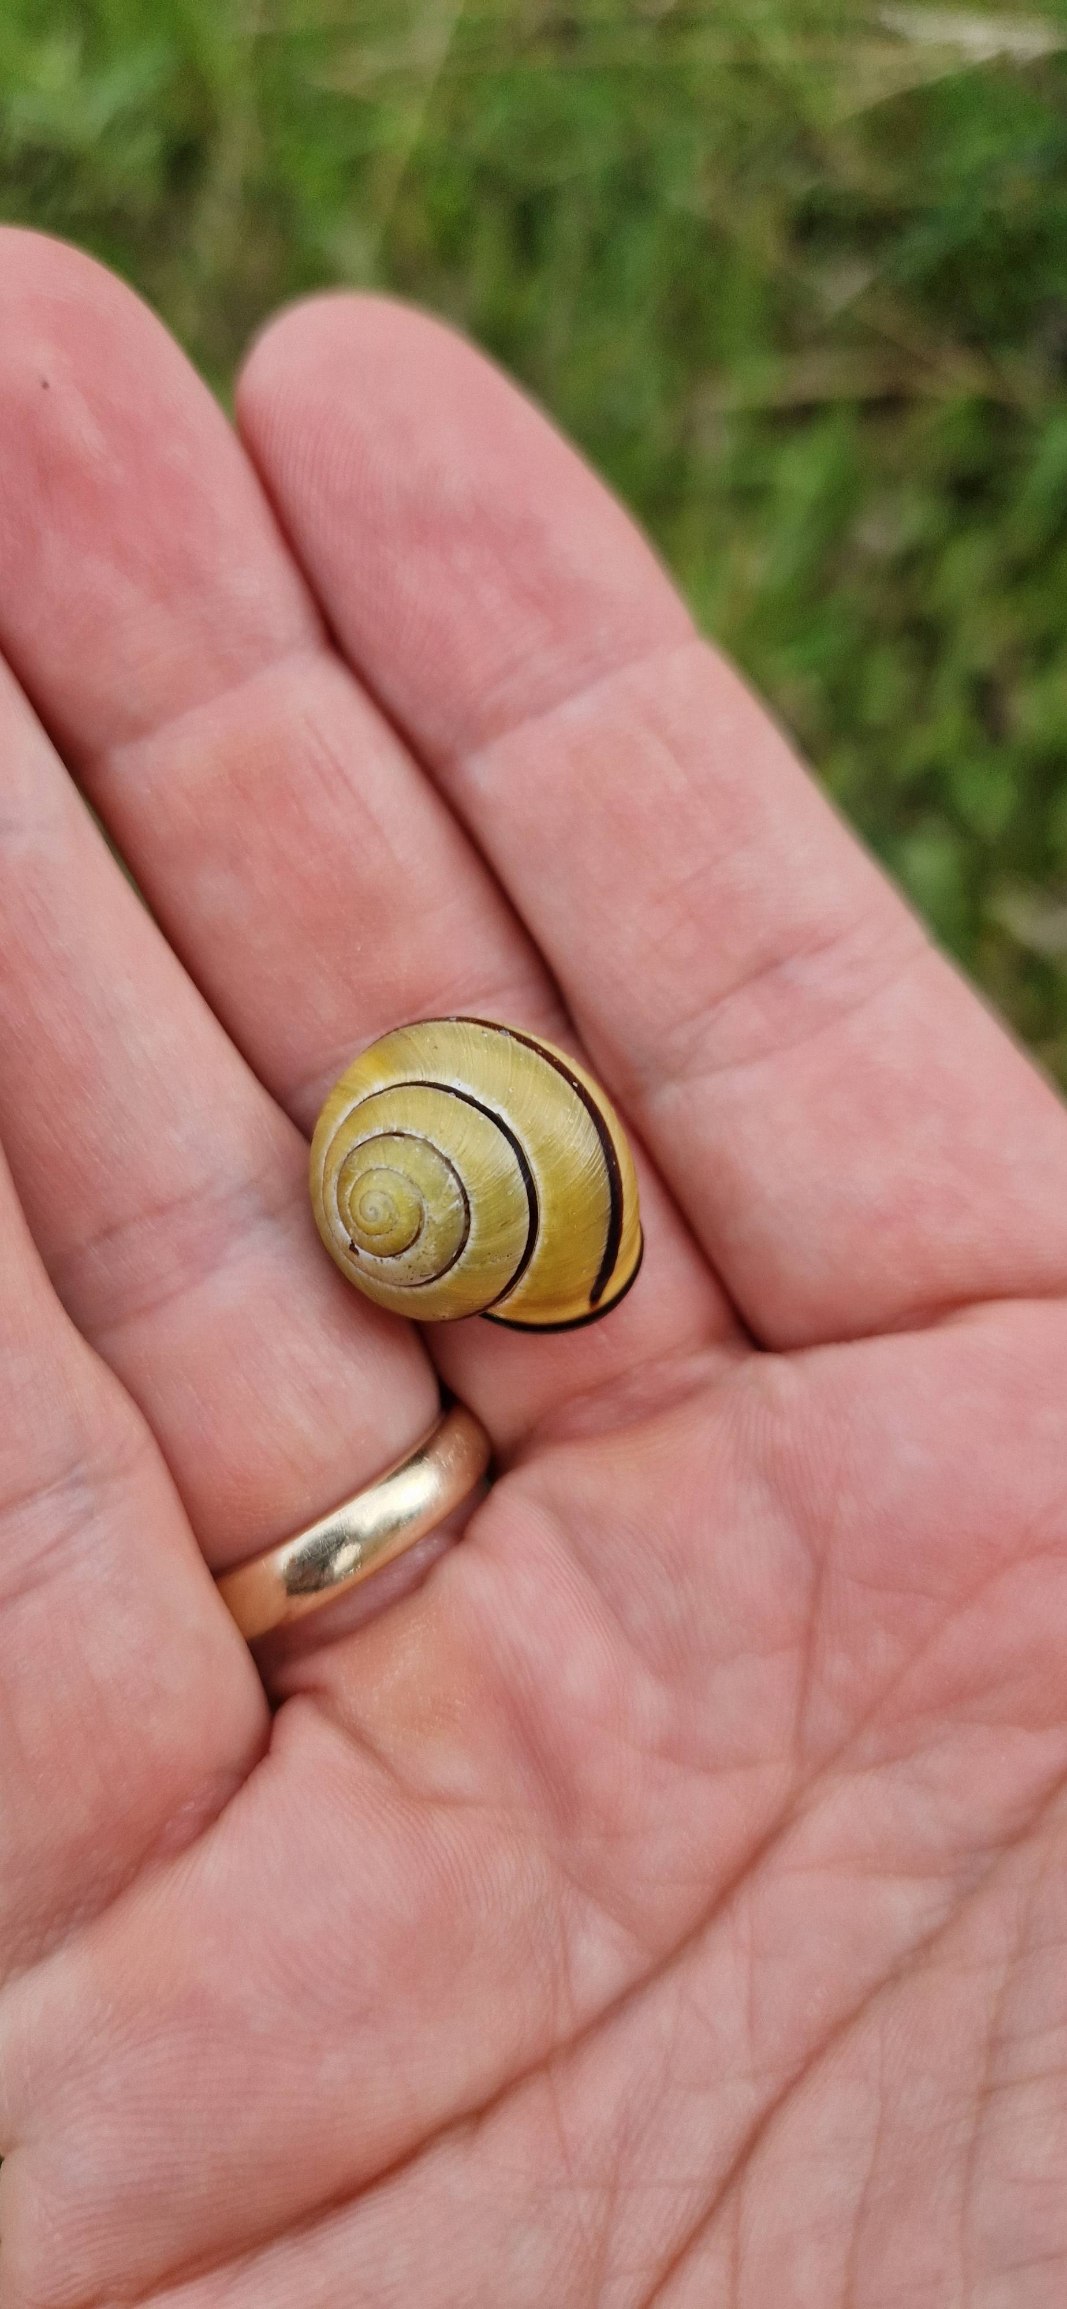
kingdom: Animalia
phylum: Mollusca
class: Gastropoda
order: Stylommatophora
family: Helicidae
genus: Cepaea
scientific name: Cepaea nemoralis
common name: Lundsnegl
